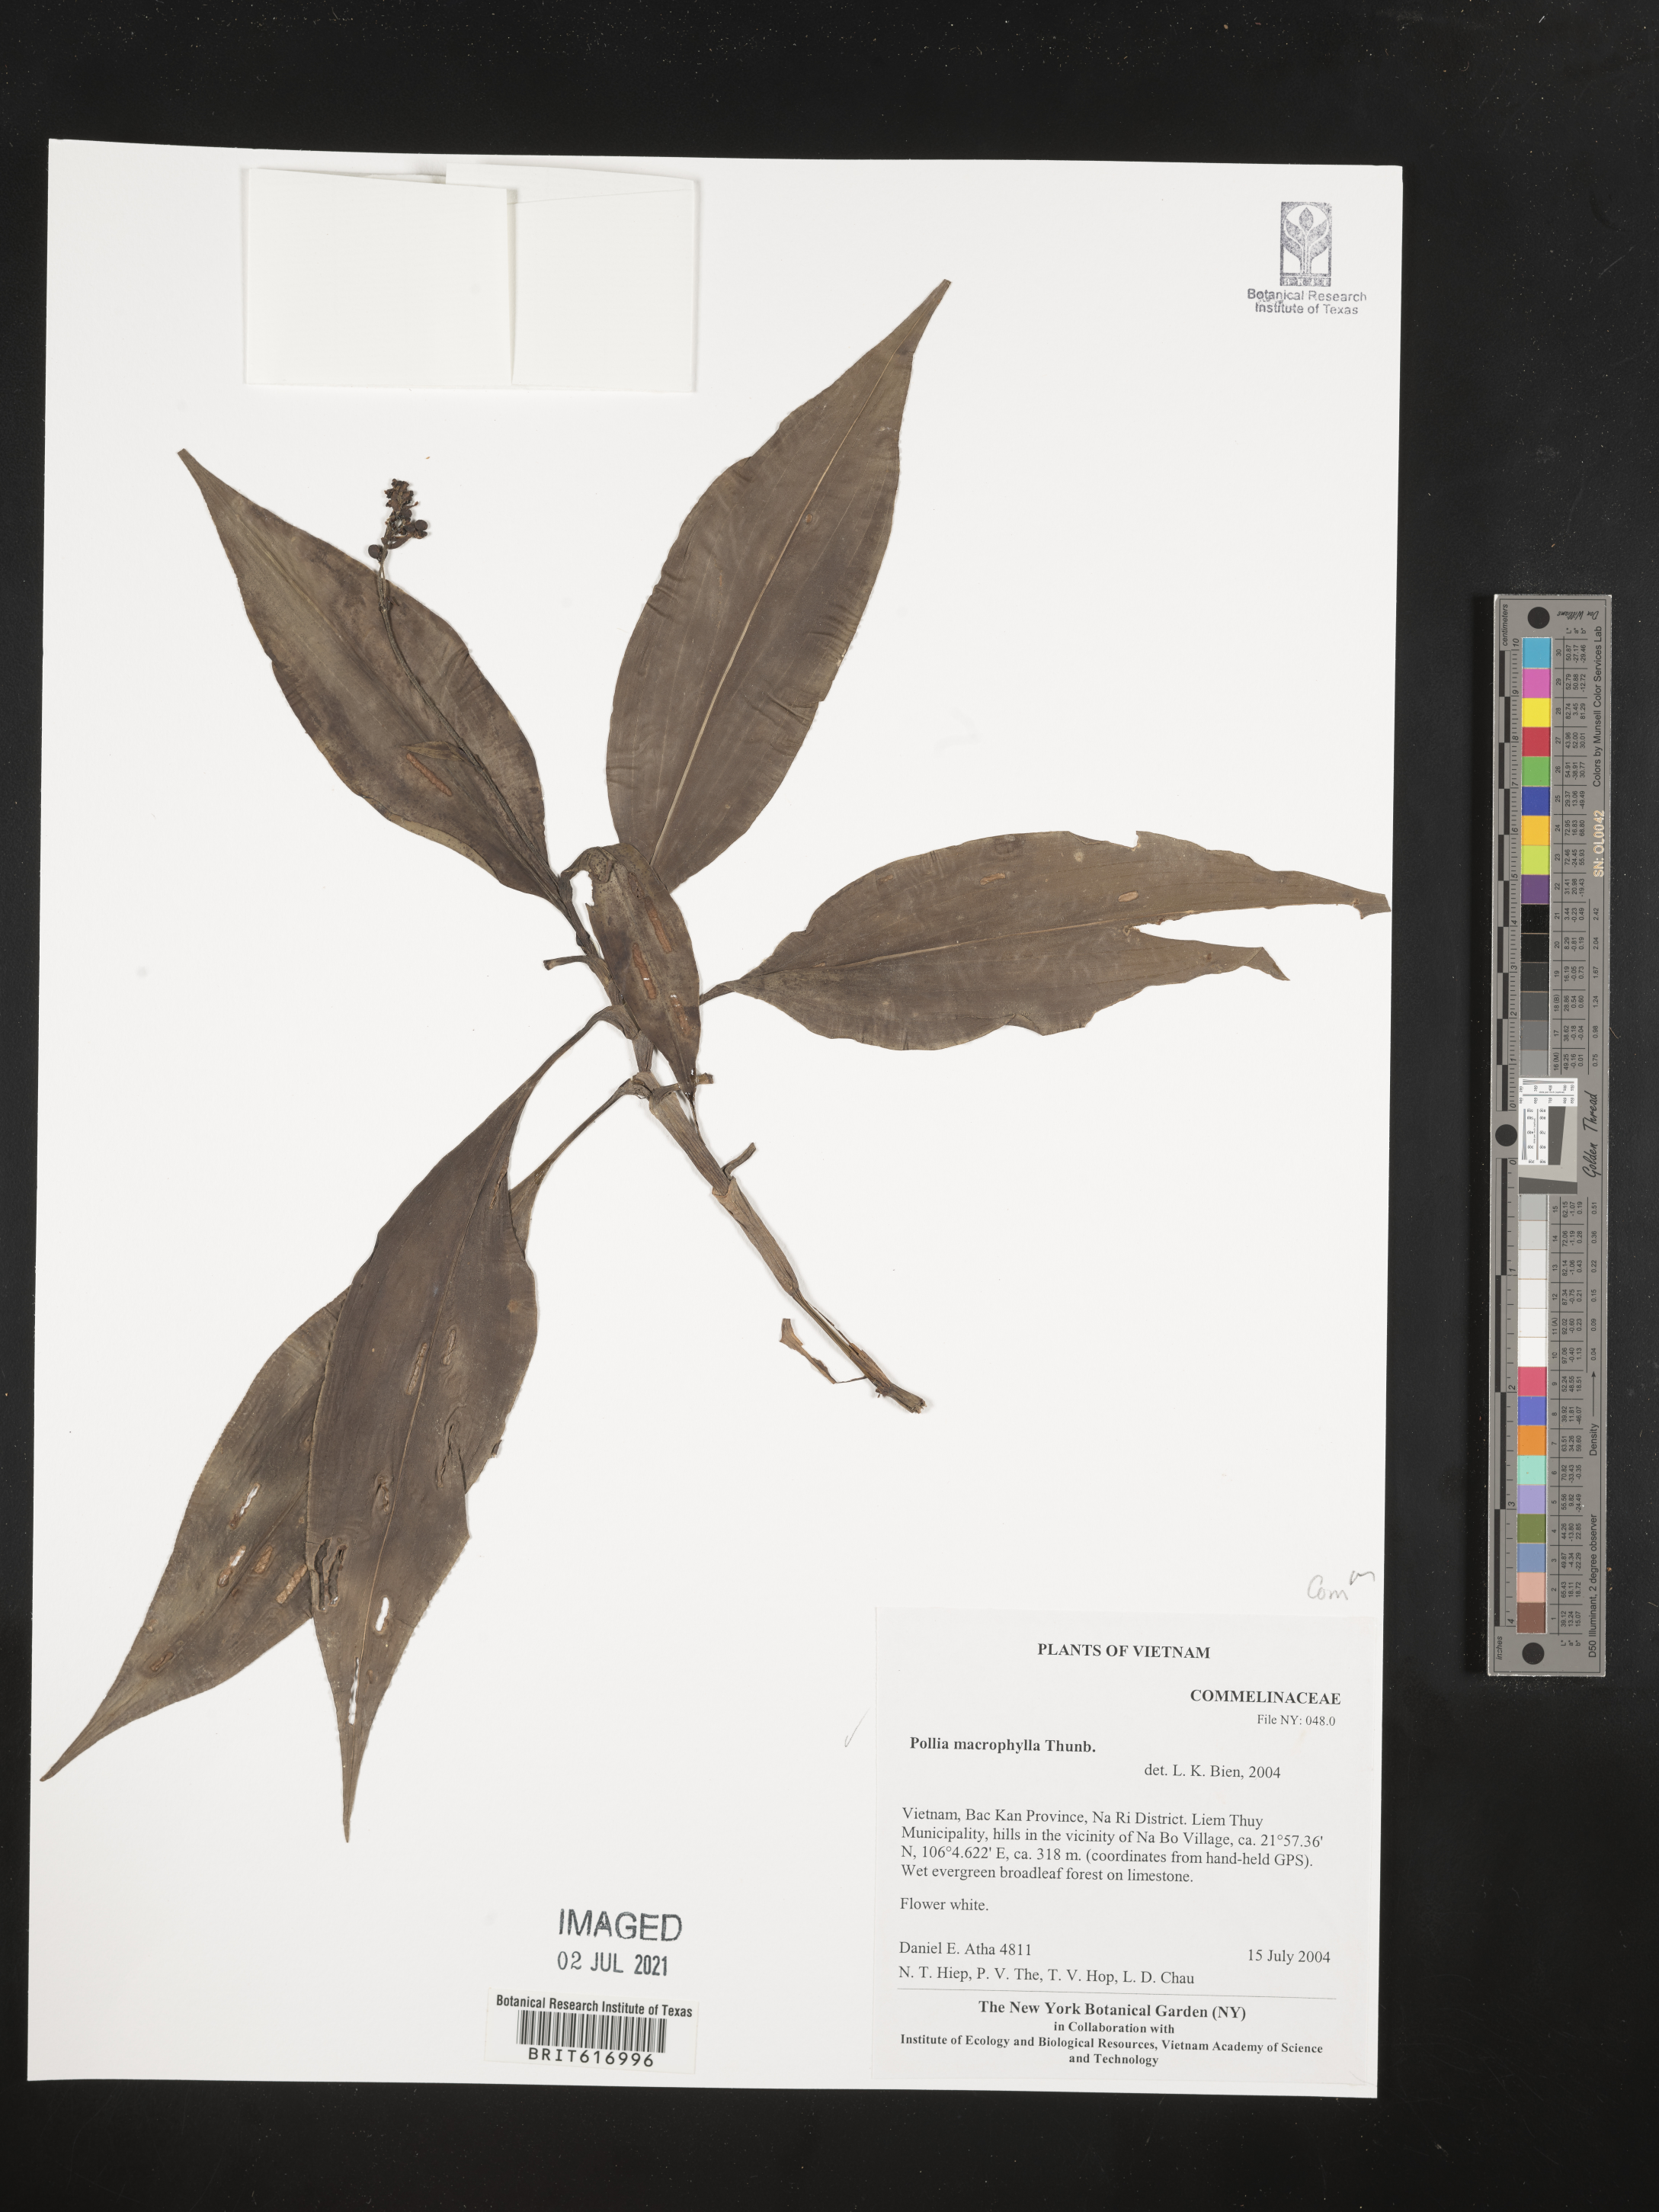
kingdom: Plantae
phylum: Tracheophyta
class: Liliopsida
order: Commelinales
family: Commelinaceae
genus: Pollia
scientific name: Pollia macrophylla
